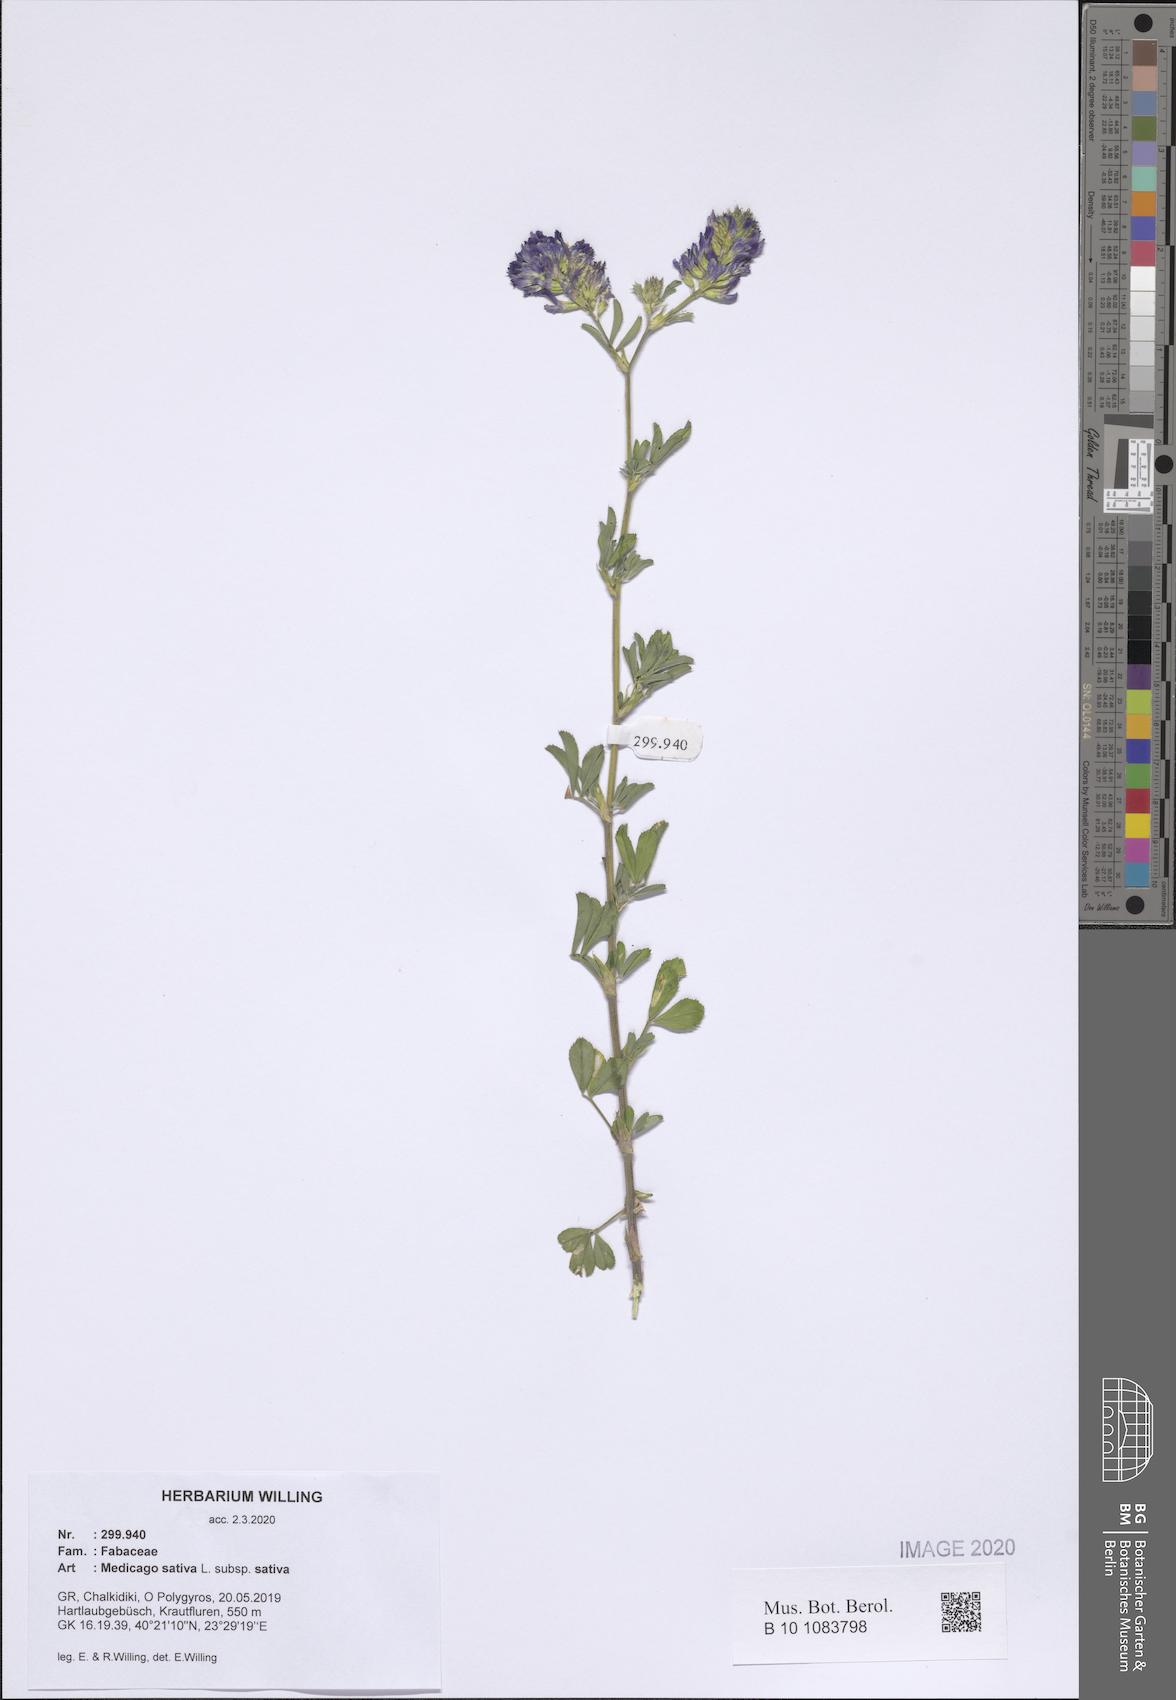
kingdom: Plantae
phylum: Tracheophyta
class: Magnoliopsida
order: Fabales
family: Fabaceae
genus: Medicago
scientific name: Medicago sativa
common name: Alfalfa
